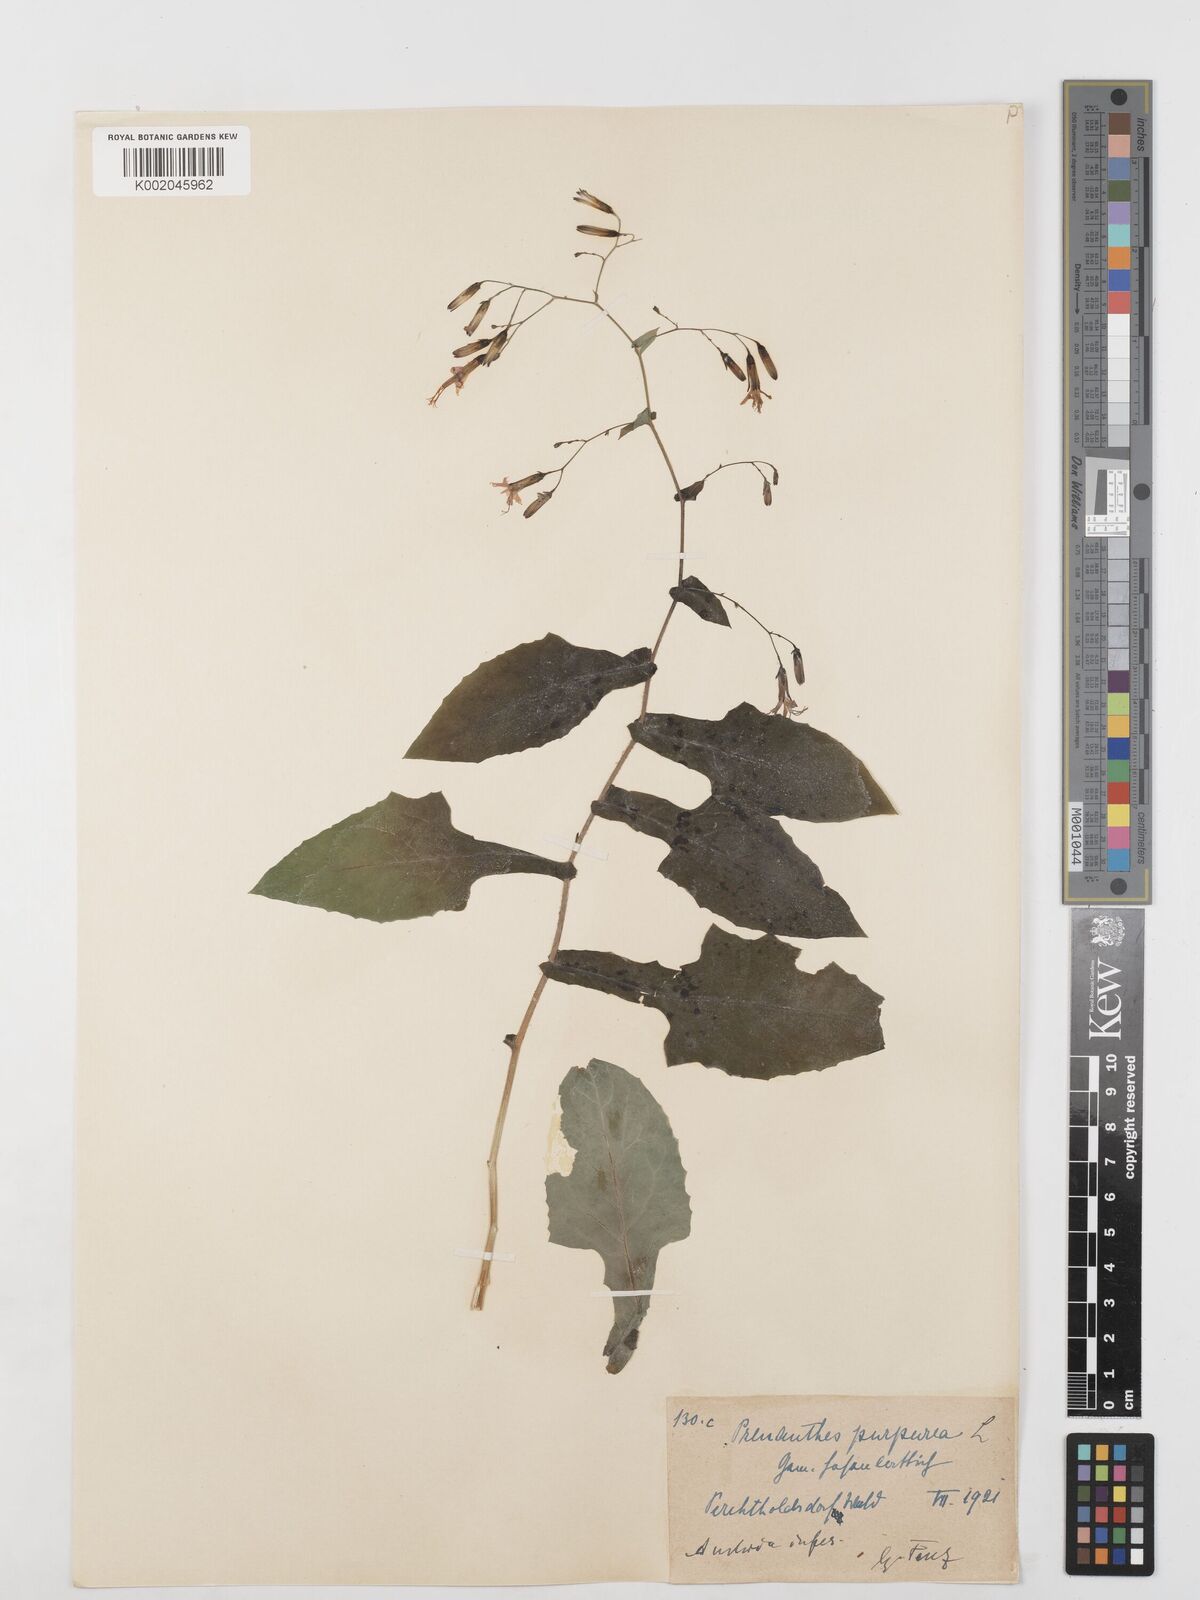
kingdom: Plantae
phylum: Tracheophyta
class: Magnoliopsida
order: Asterales
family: Asteraceae
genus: Prenanthes
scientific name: Prenanthes purpurea
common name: Purple lettuce
